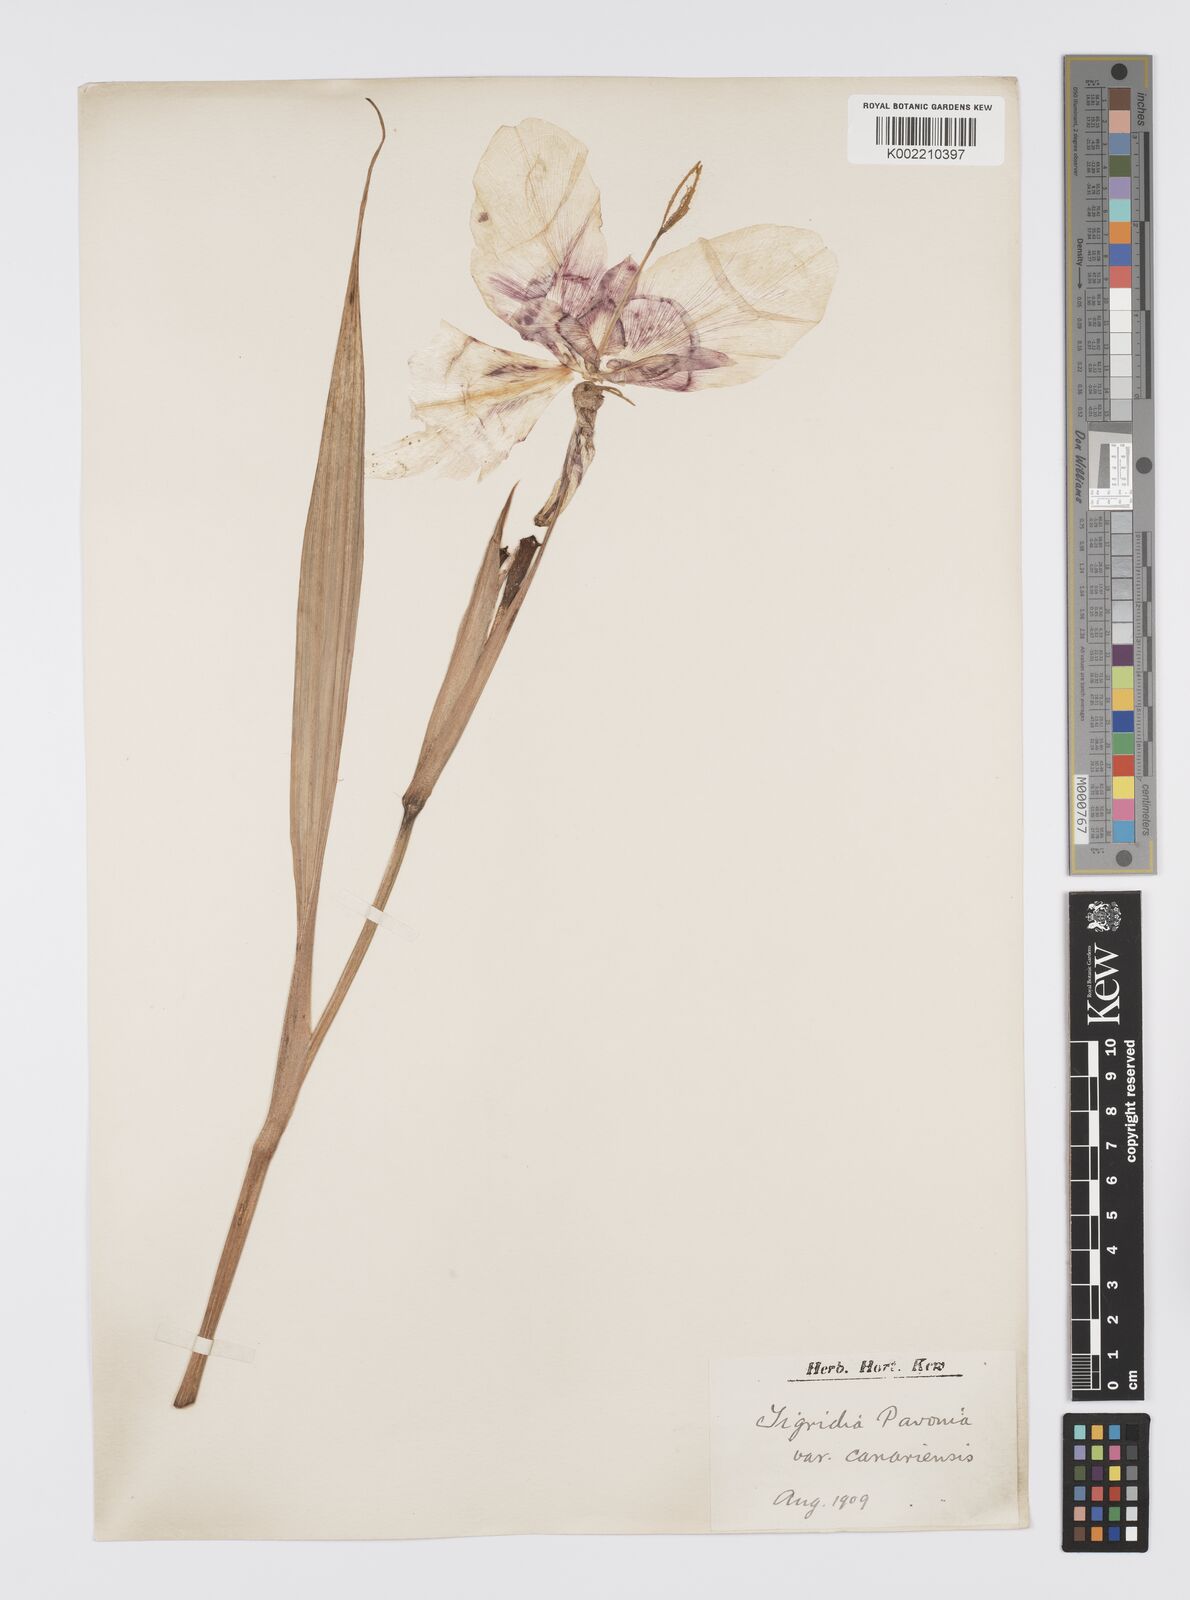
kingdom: Plantae
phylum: Tracheophyta
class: Liliopsida
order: Asparagales
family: Iridaceae
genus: Tigridia
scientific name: Tigridia pavonia
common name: Peacock-flower
